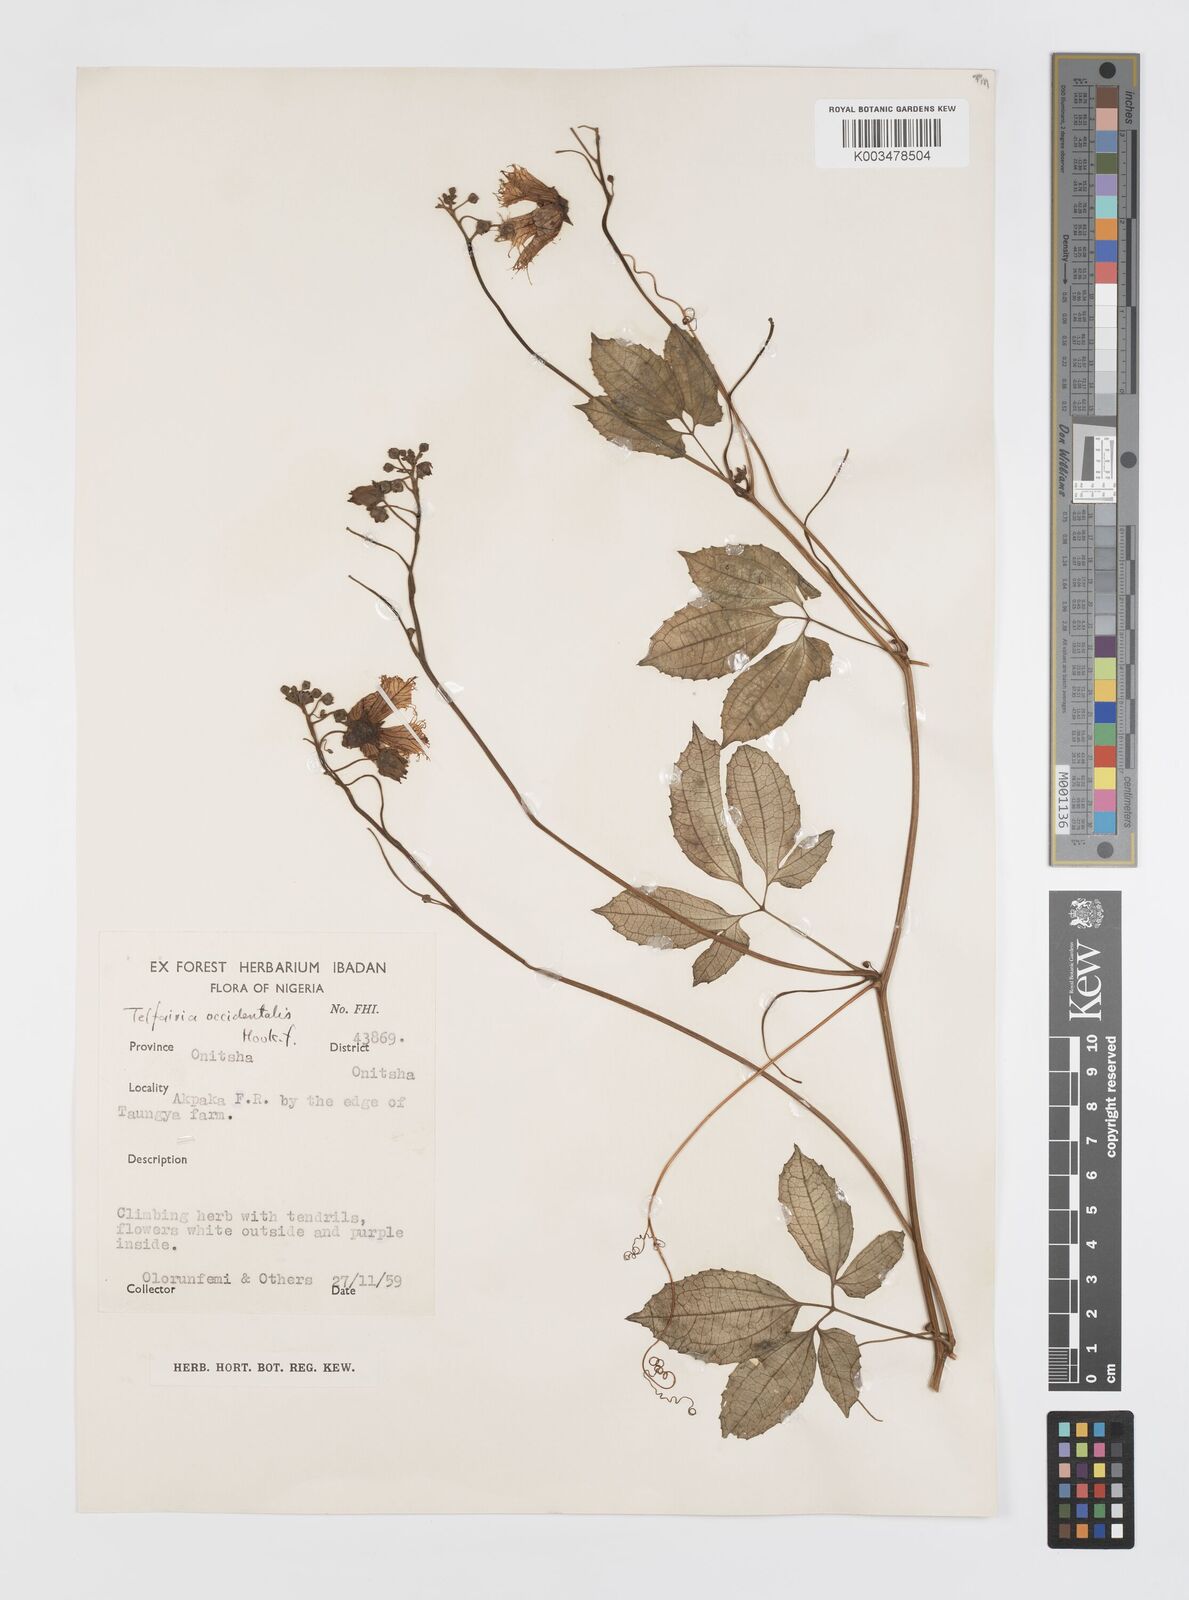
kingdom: Plantae
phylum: Tracheophyta
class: Magnoliopsida
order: Cucurbitales
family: Cucurbitaceae
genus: Telfairia
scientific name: Telfairia occidentalis
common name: Oysternut
